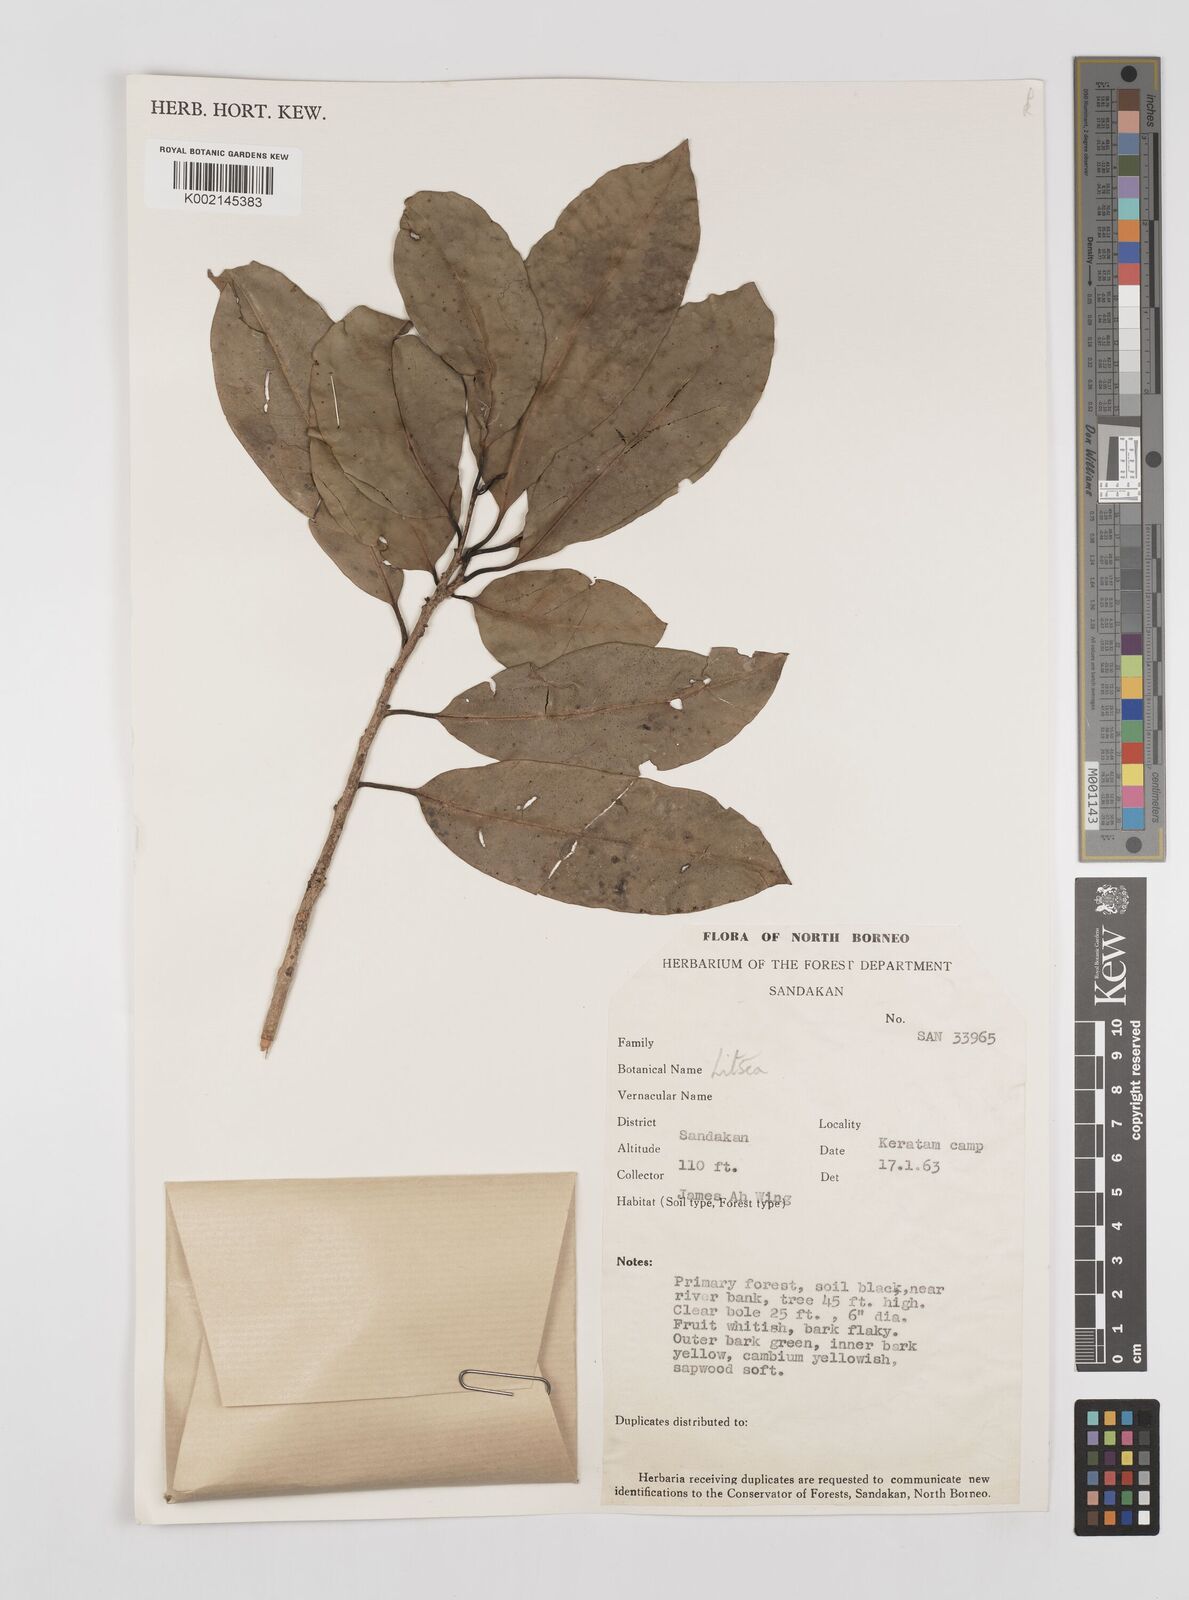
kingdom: Plantae
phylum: Tracheophyta
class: Magnoliopsida
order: Laurales
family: Lauraceae
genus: Litsea
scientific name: Litsea
